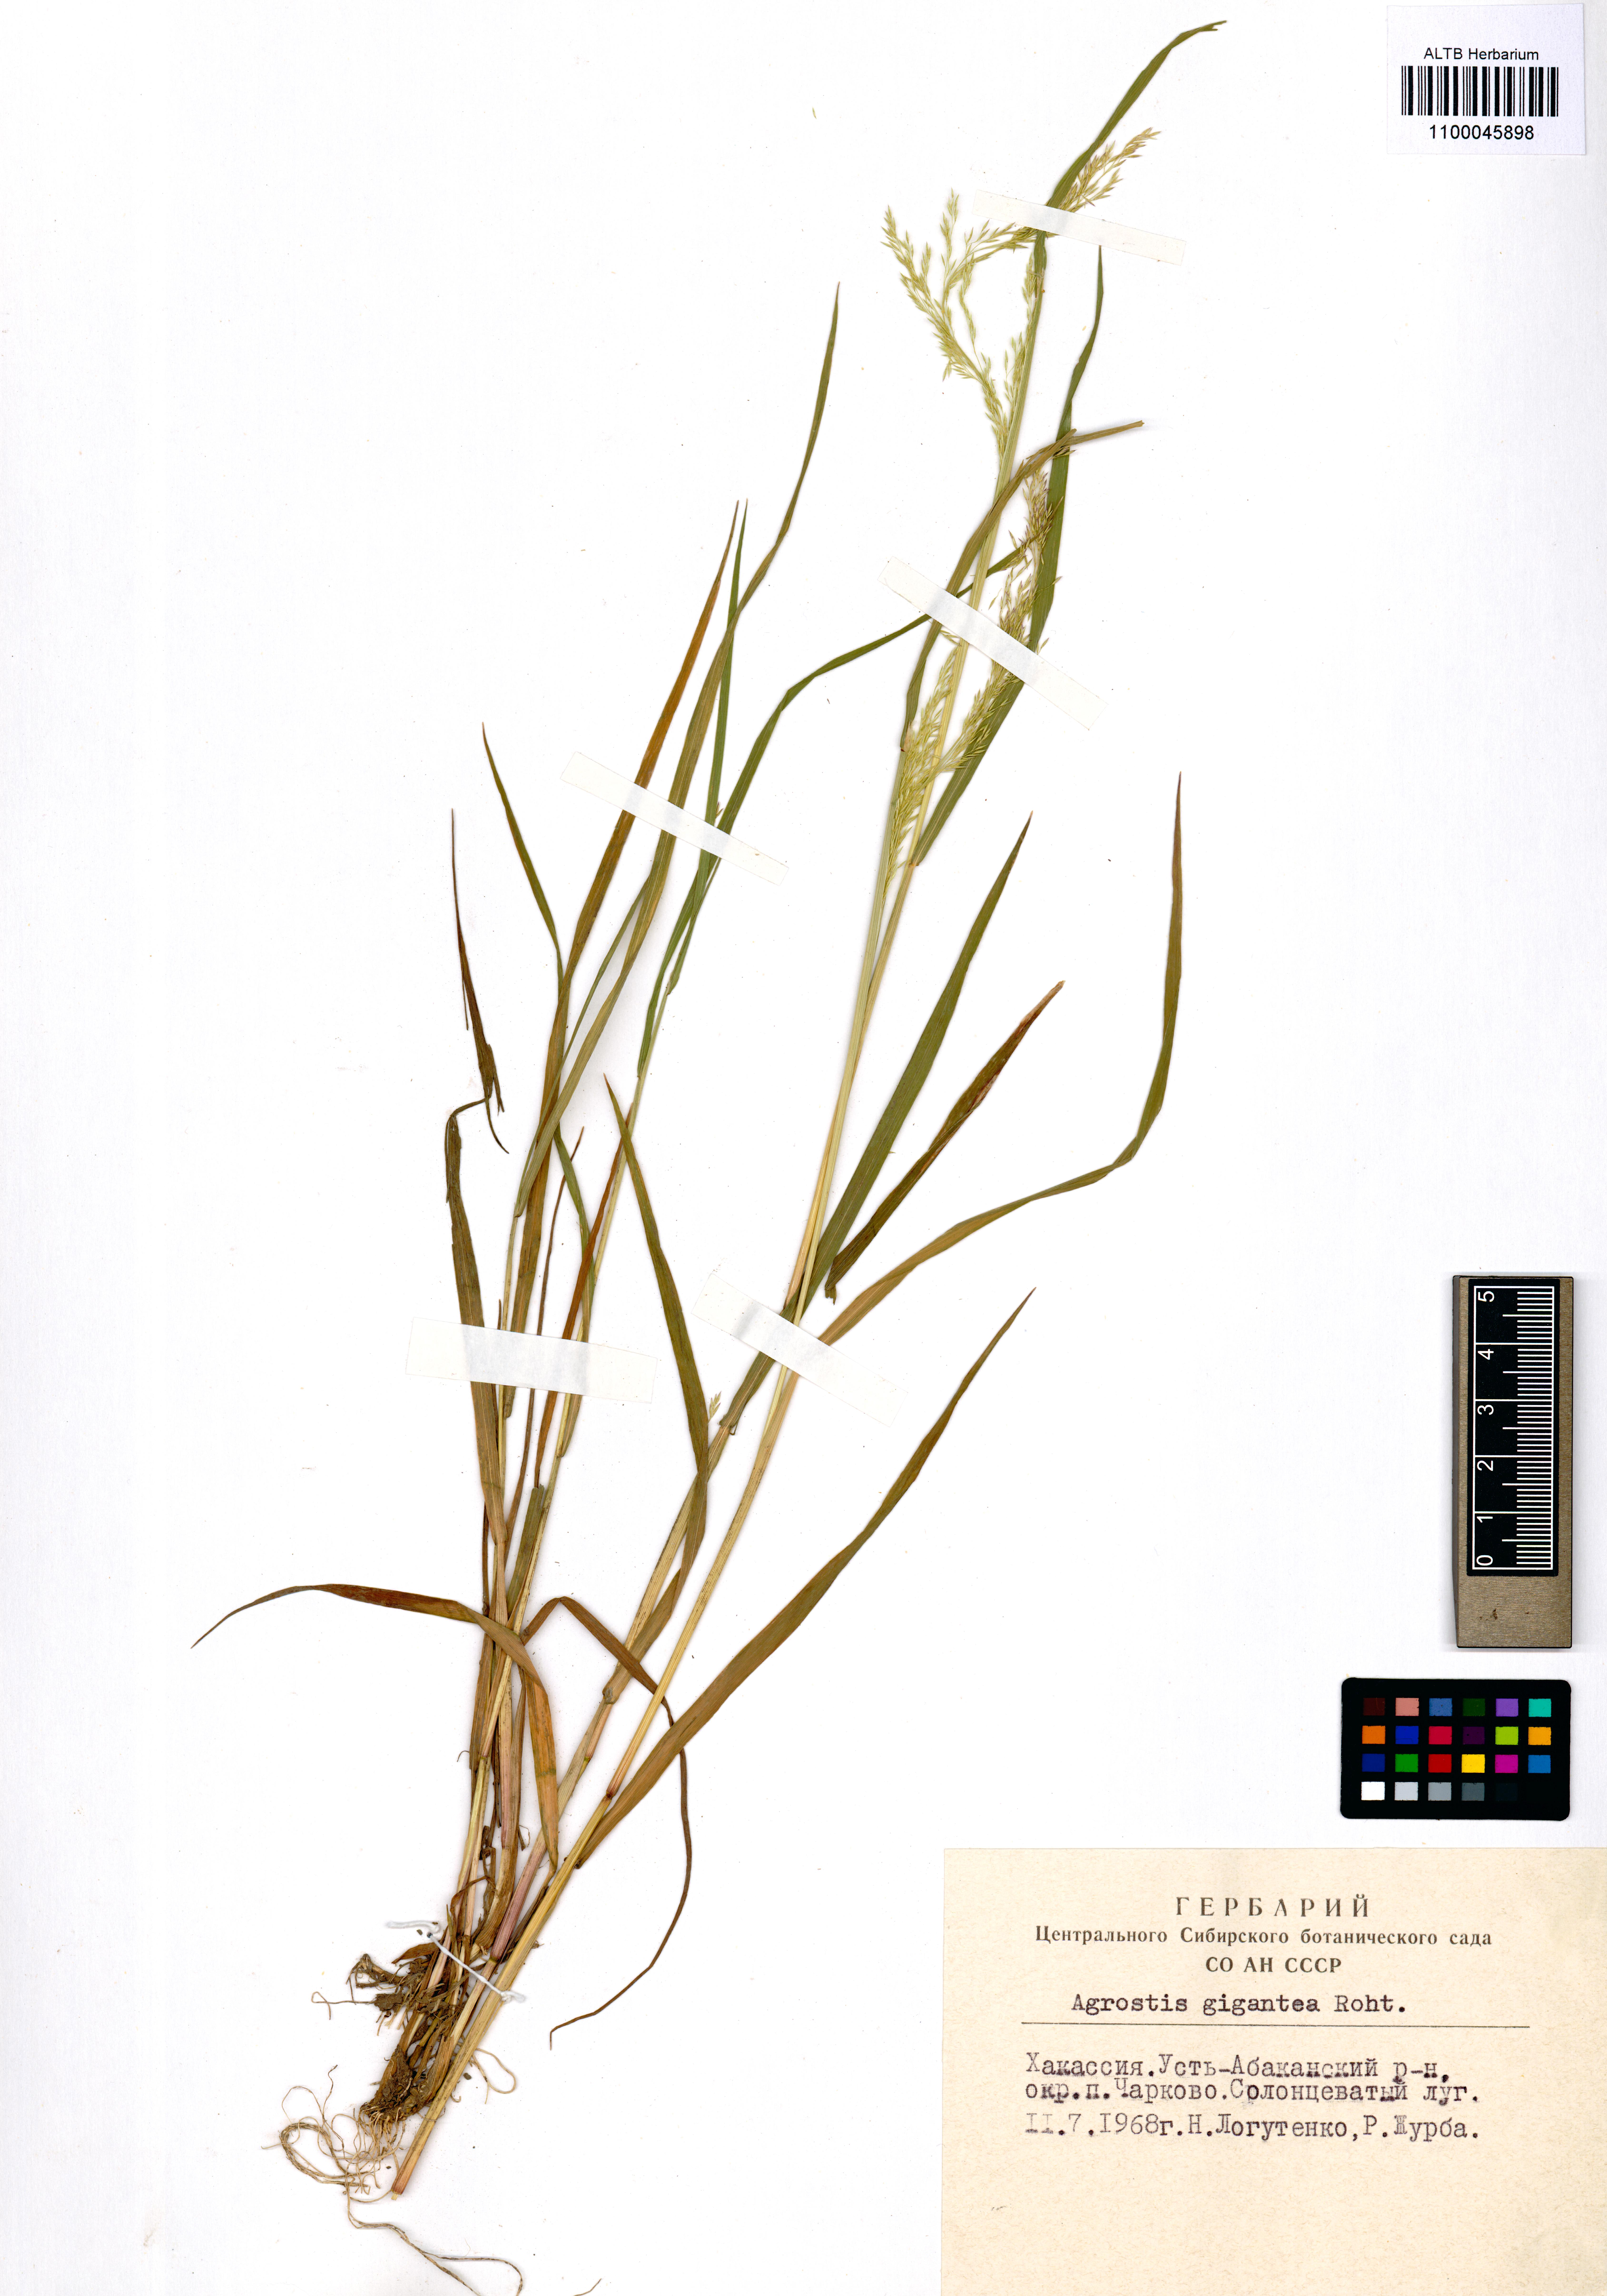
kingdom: Plantae
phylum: Tracheophyta
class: Liliopsida
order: Poales
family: Poaceae
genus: Agrostis
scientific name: Agrostis gigantea
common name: Black bent
